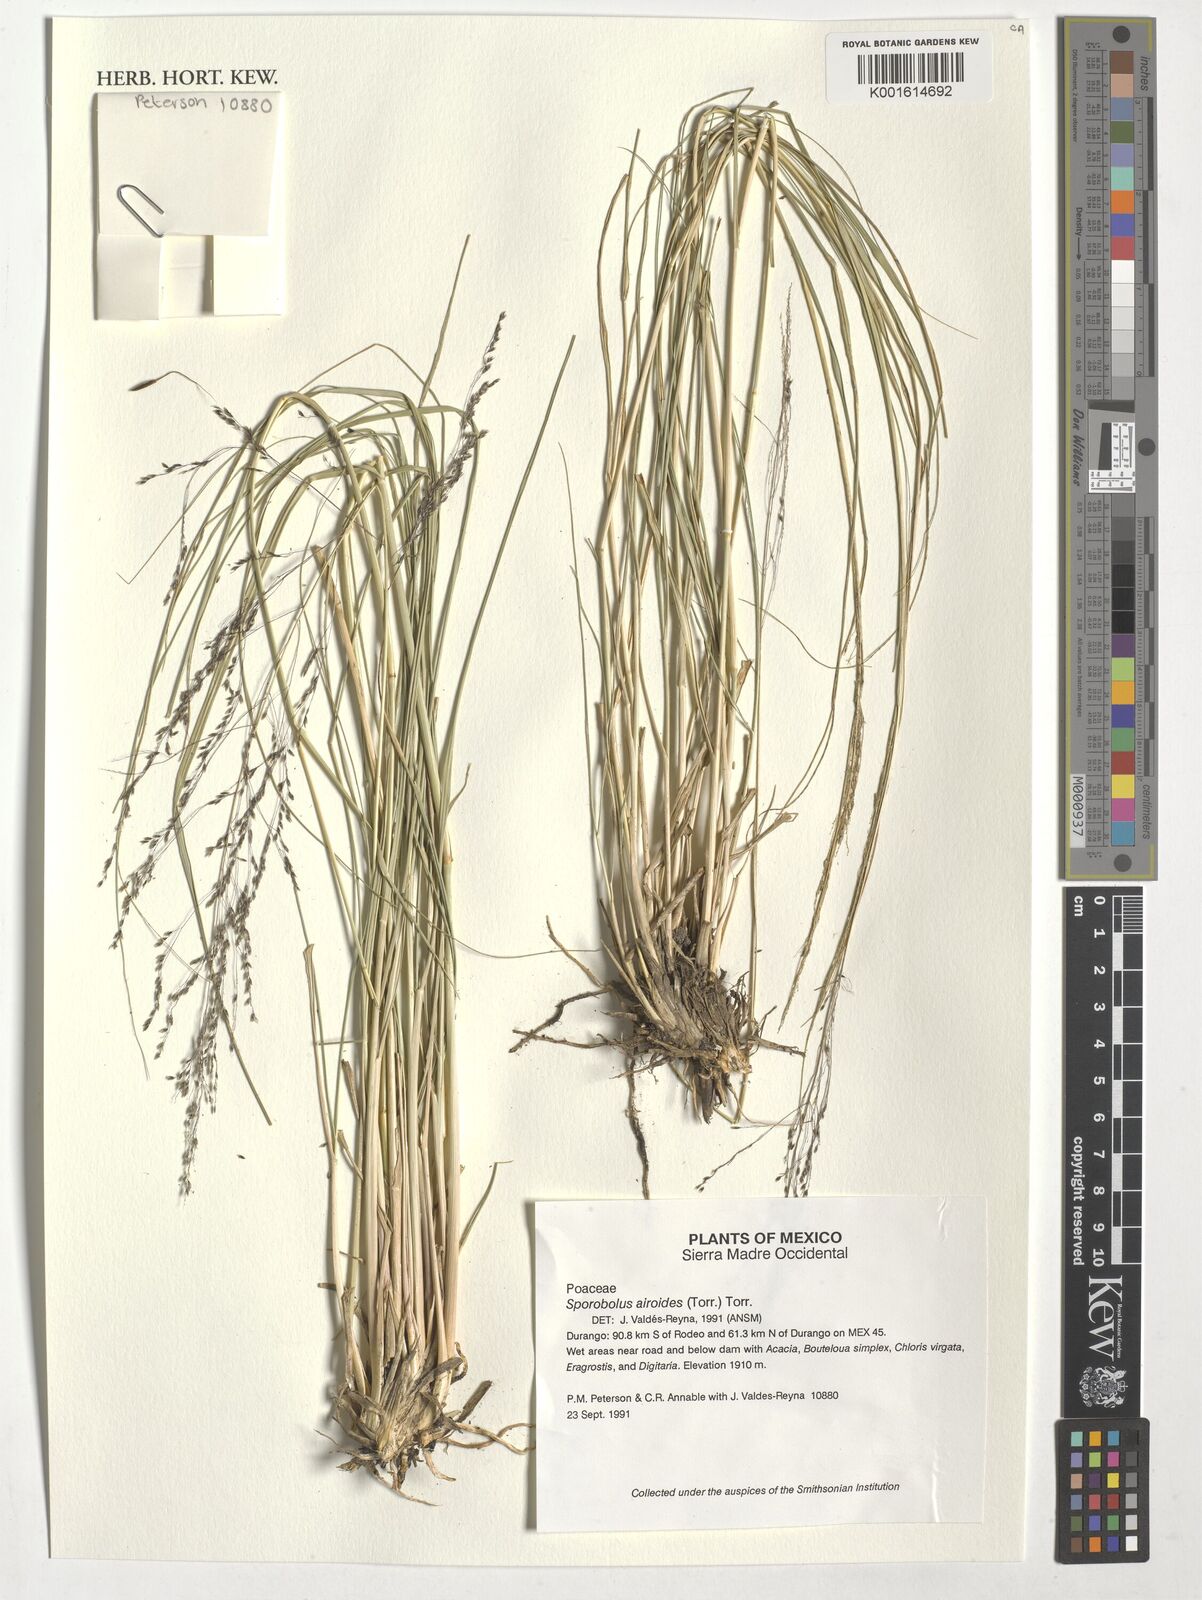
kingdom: Plantae
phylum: Tracheophyta
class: Liliopsida
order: Poales
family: Poaceae
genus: Sporobolus
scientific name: Sporobolus airoides
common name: Alkali sacaton
